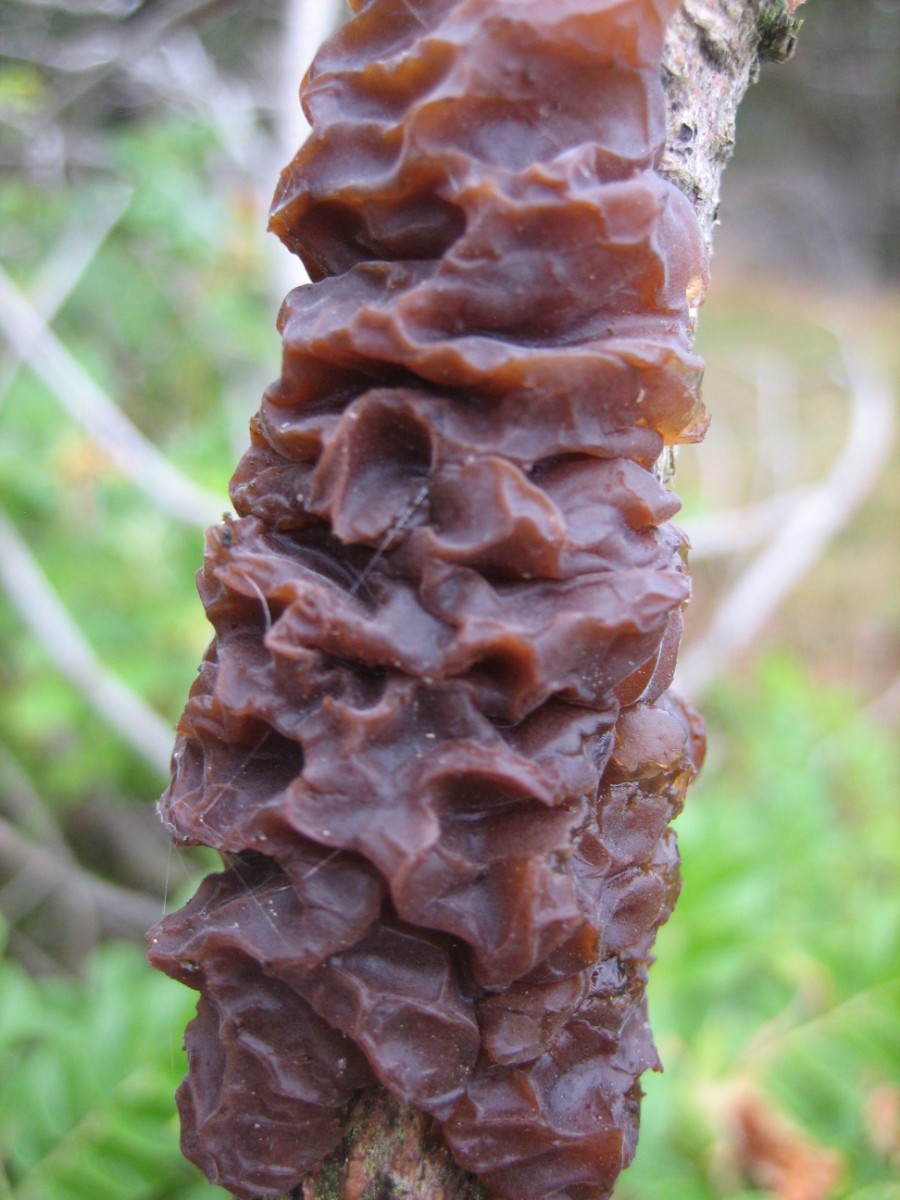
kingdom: Fungi
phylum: Basidiomycota
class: Agaricomycetes
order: Auriculariales
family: Auriculariaceae
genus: Exidia
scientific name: Exidia saccharina
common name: kandis-bævretop
